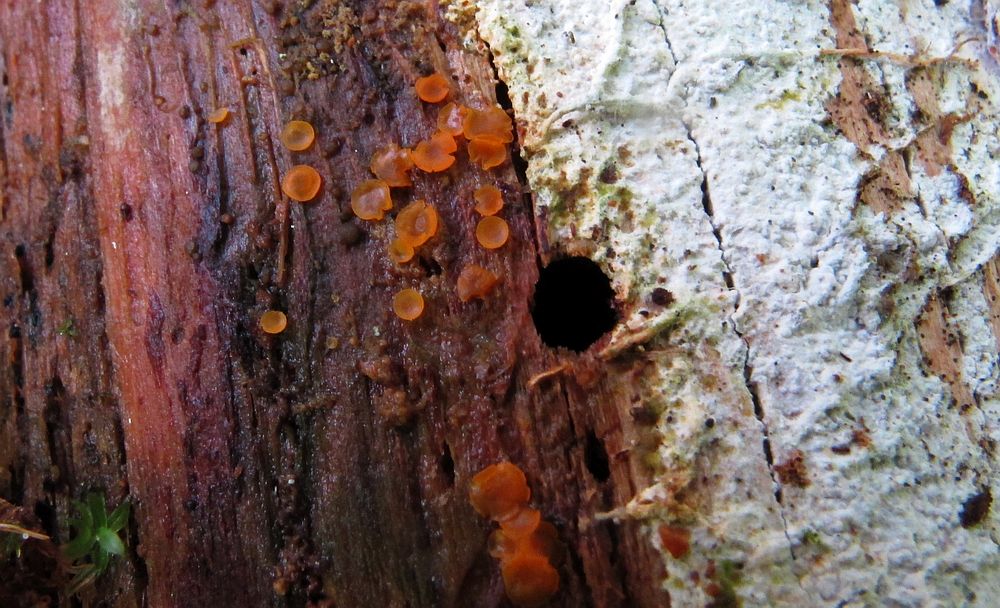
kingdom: Fungi
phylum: Ascomycota
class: Orbiliomycetes
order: Orbiliales
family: Orbiliaceae
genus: Orbilia
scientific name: Orbilia xanthostigma
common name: krumsporet voksskive
